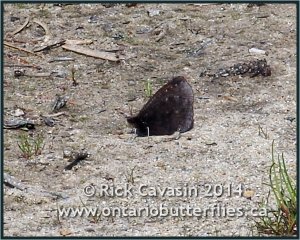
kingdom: Animalia
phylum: Arthropoda
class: Insecta
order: Lepidoptera
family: Nymphalidae
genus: Erebia
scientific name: Erebia discoidalis
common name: Red-disked Alpine
